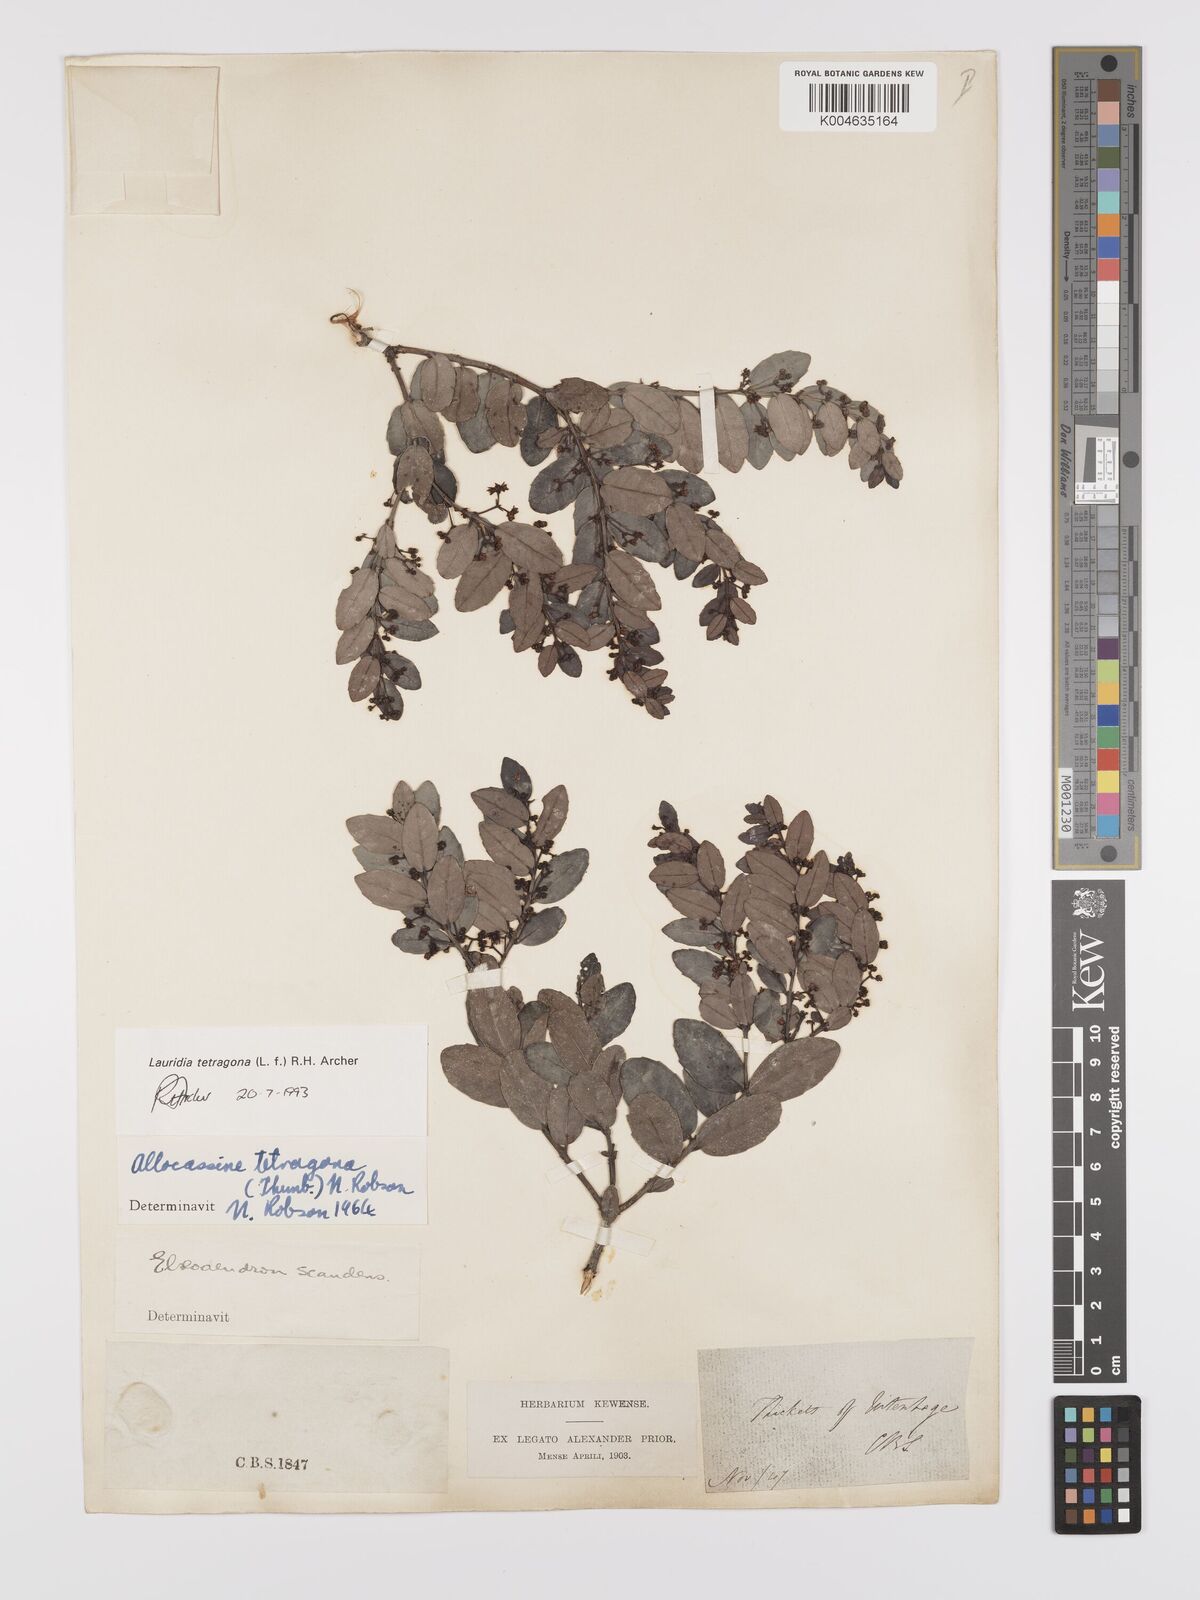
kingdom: Plantae
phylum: Tracheophyta
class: Magnoliopsida
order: Celastrales
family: Celastraceae
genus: Lauridia
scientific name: Lauridia tetragona
